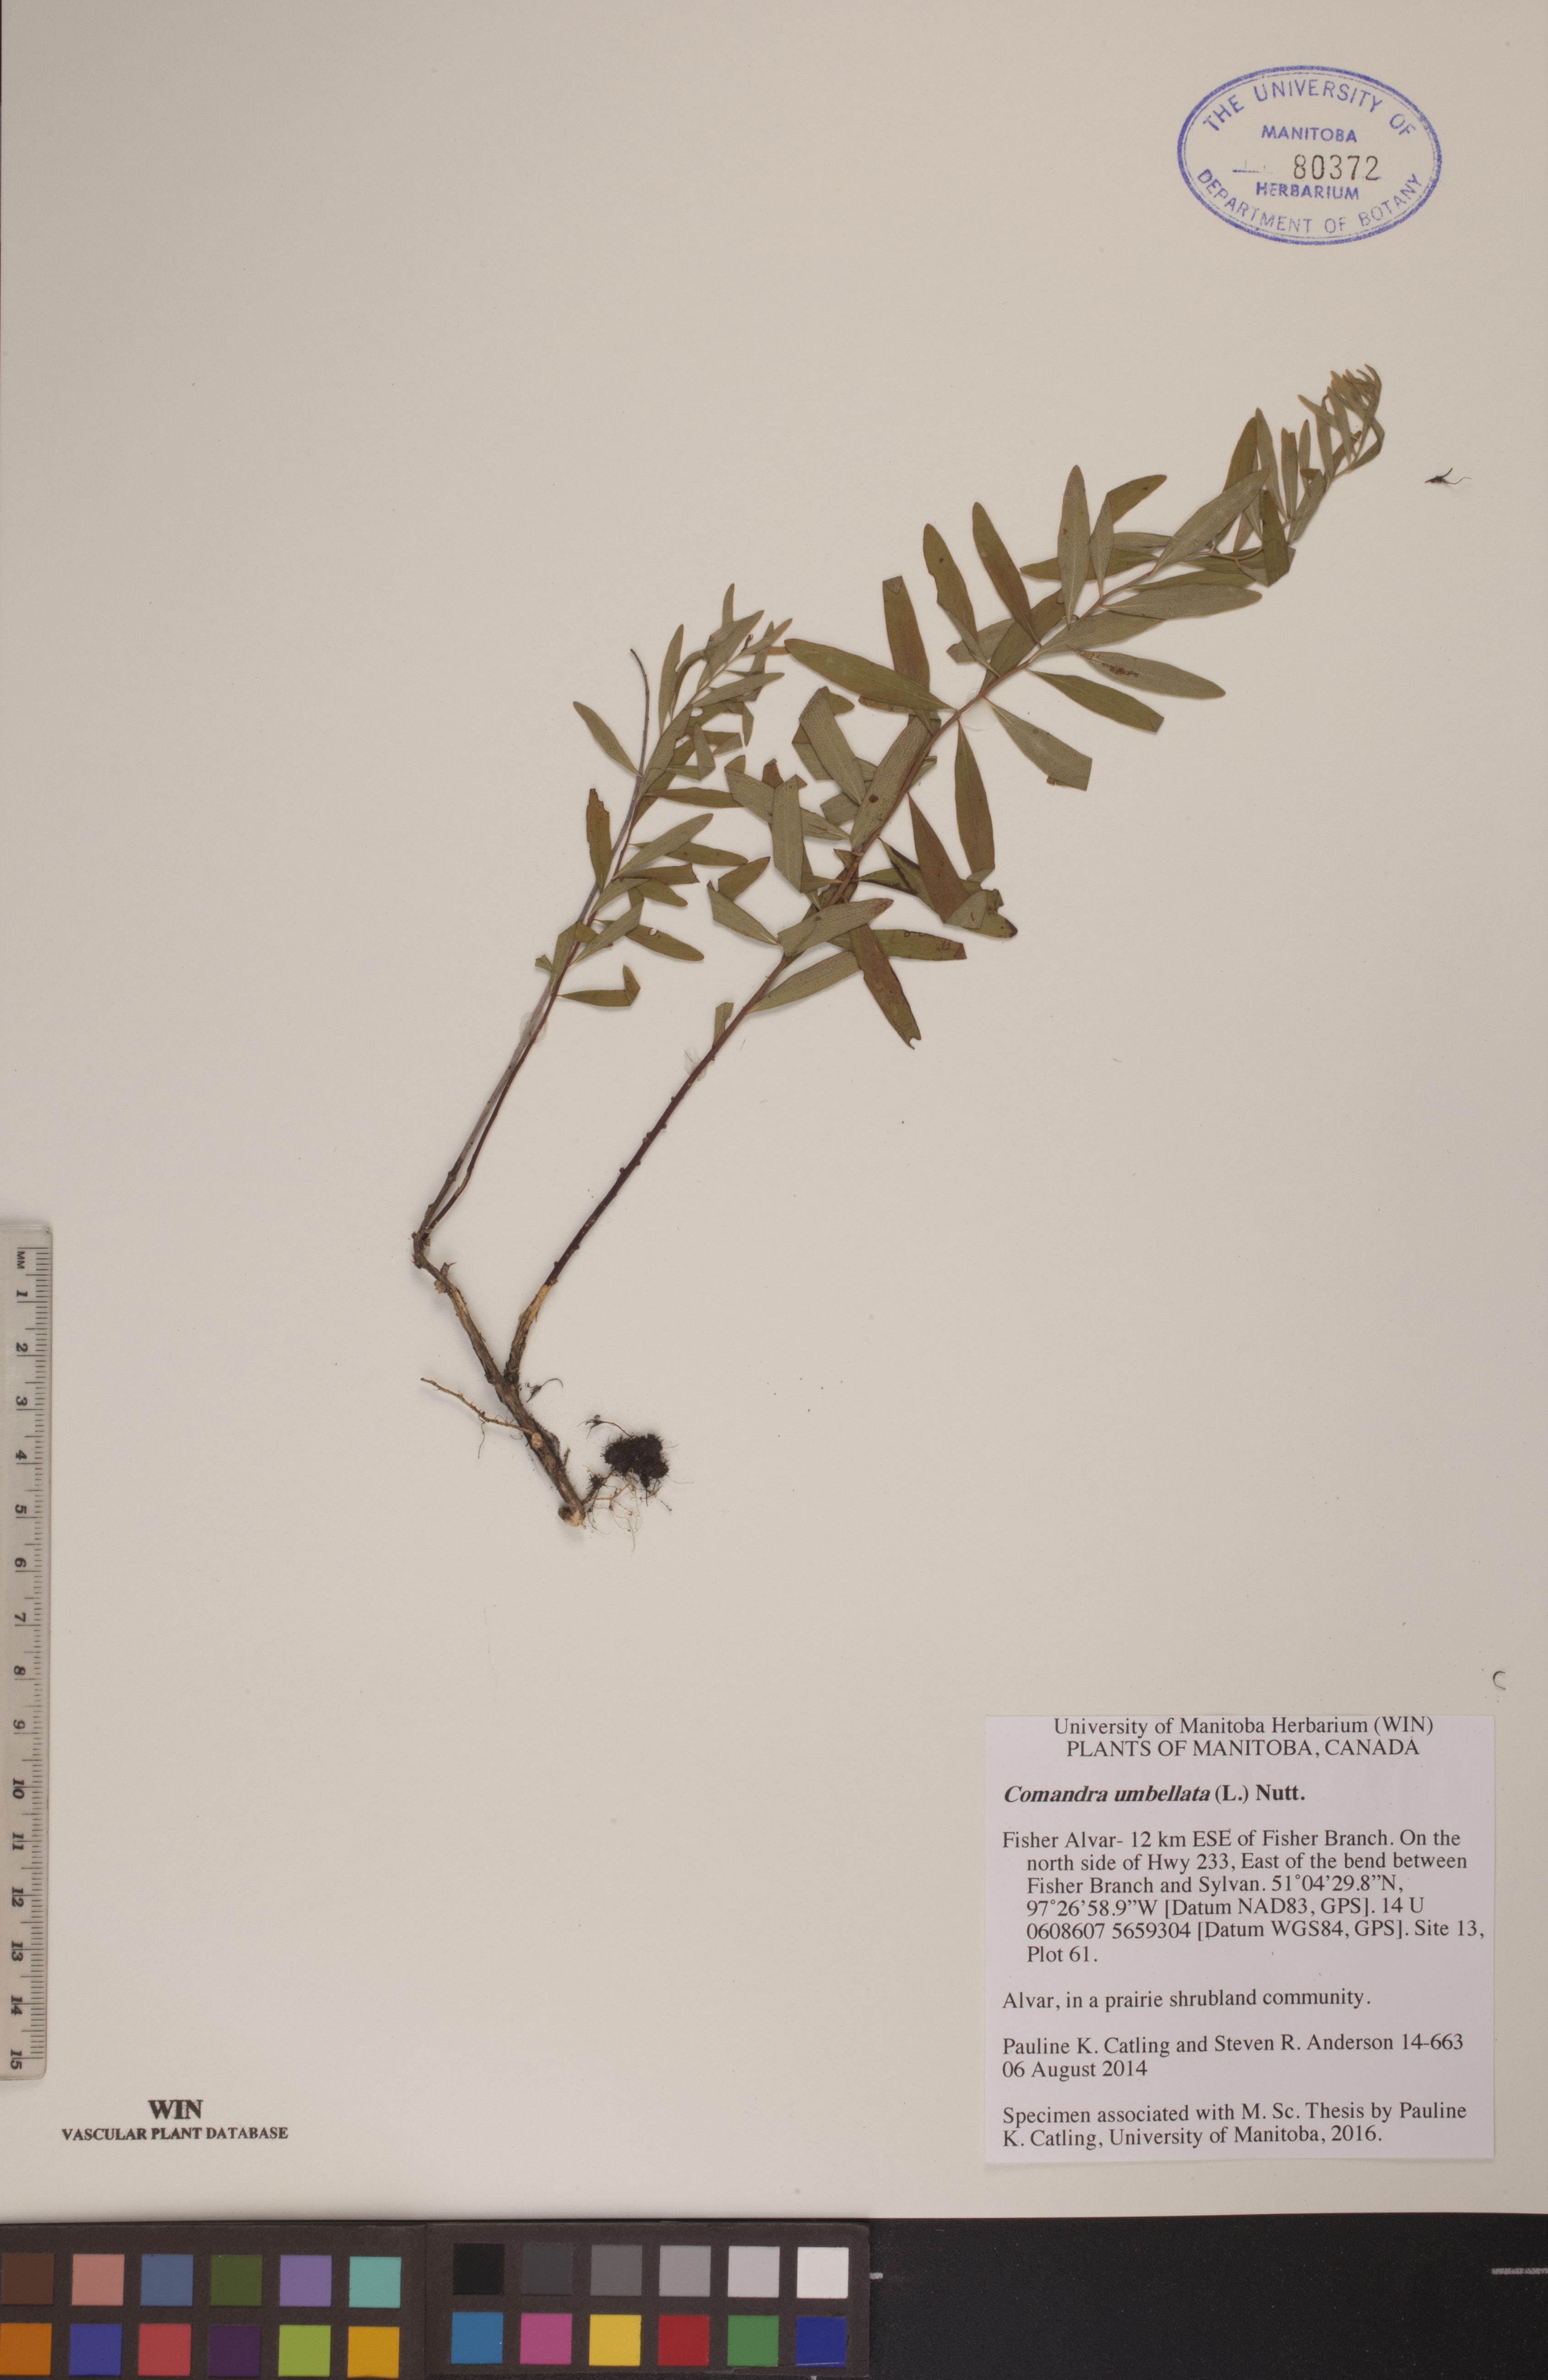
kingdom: Plantae
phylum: Tracheophyta
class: Magnoliopsida
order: Santalales
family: Comandraceae
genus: Comandra
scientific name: Comandra umbellata
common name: Bastard toadflax
